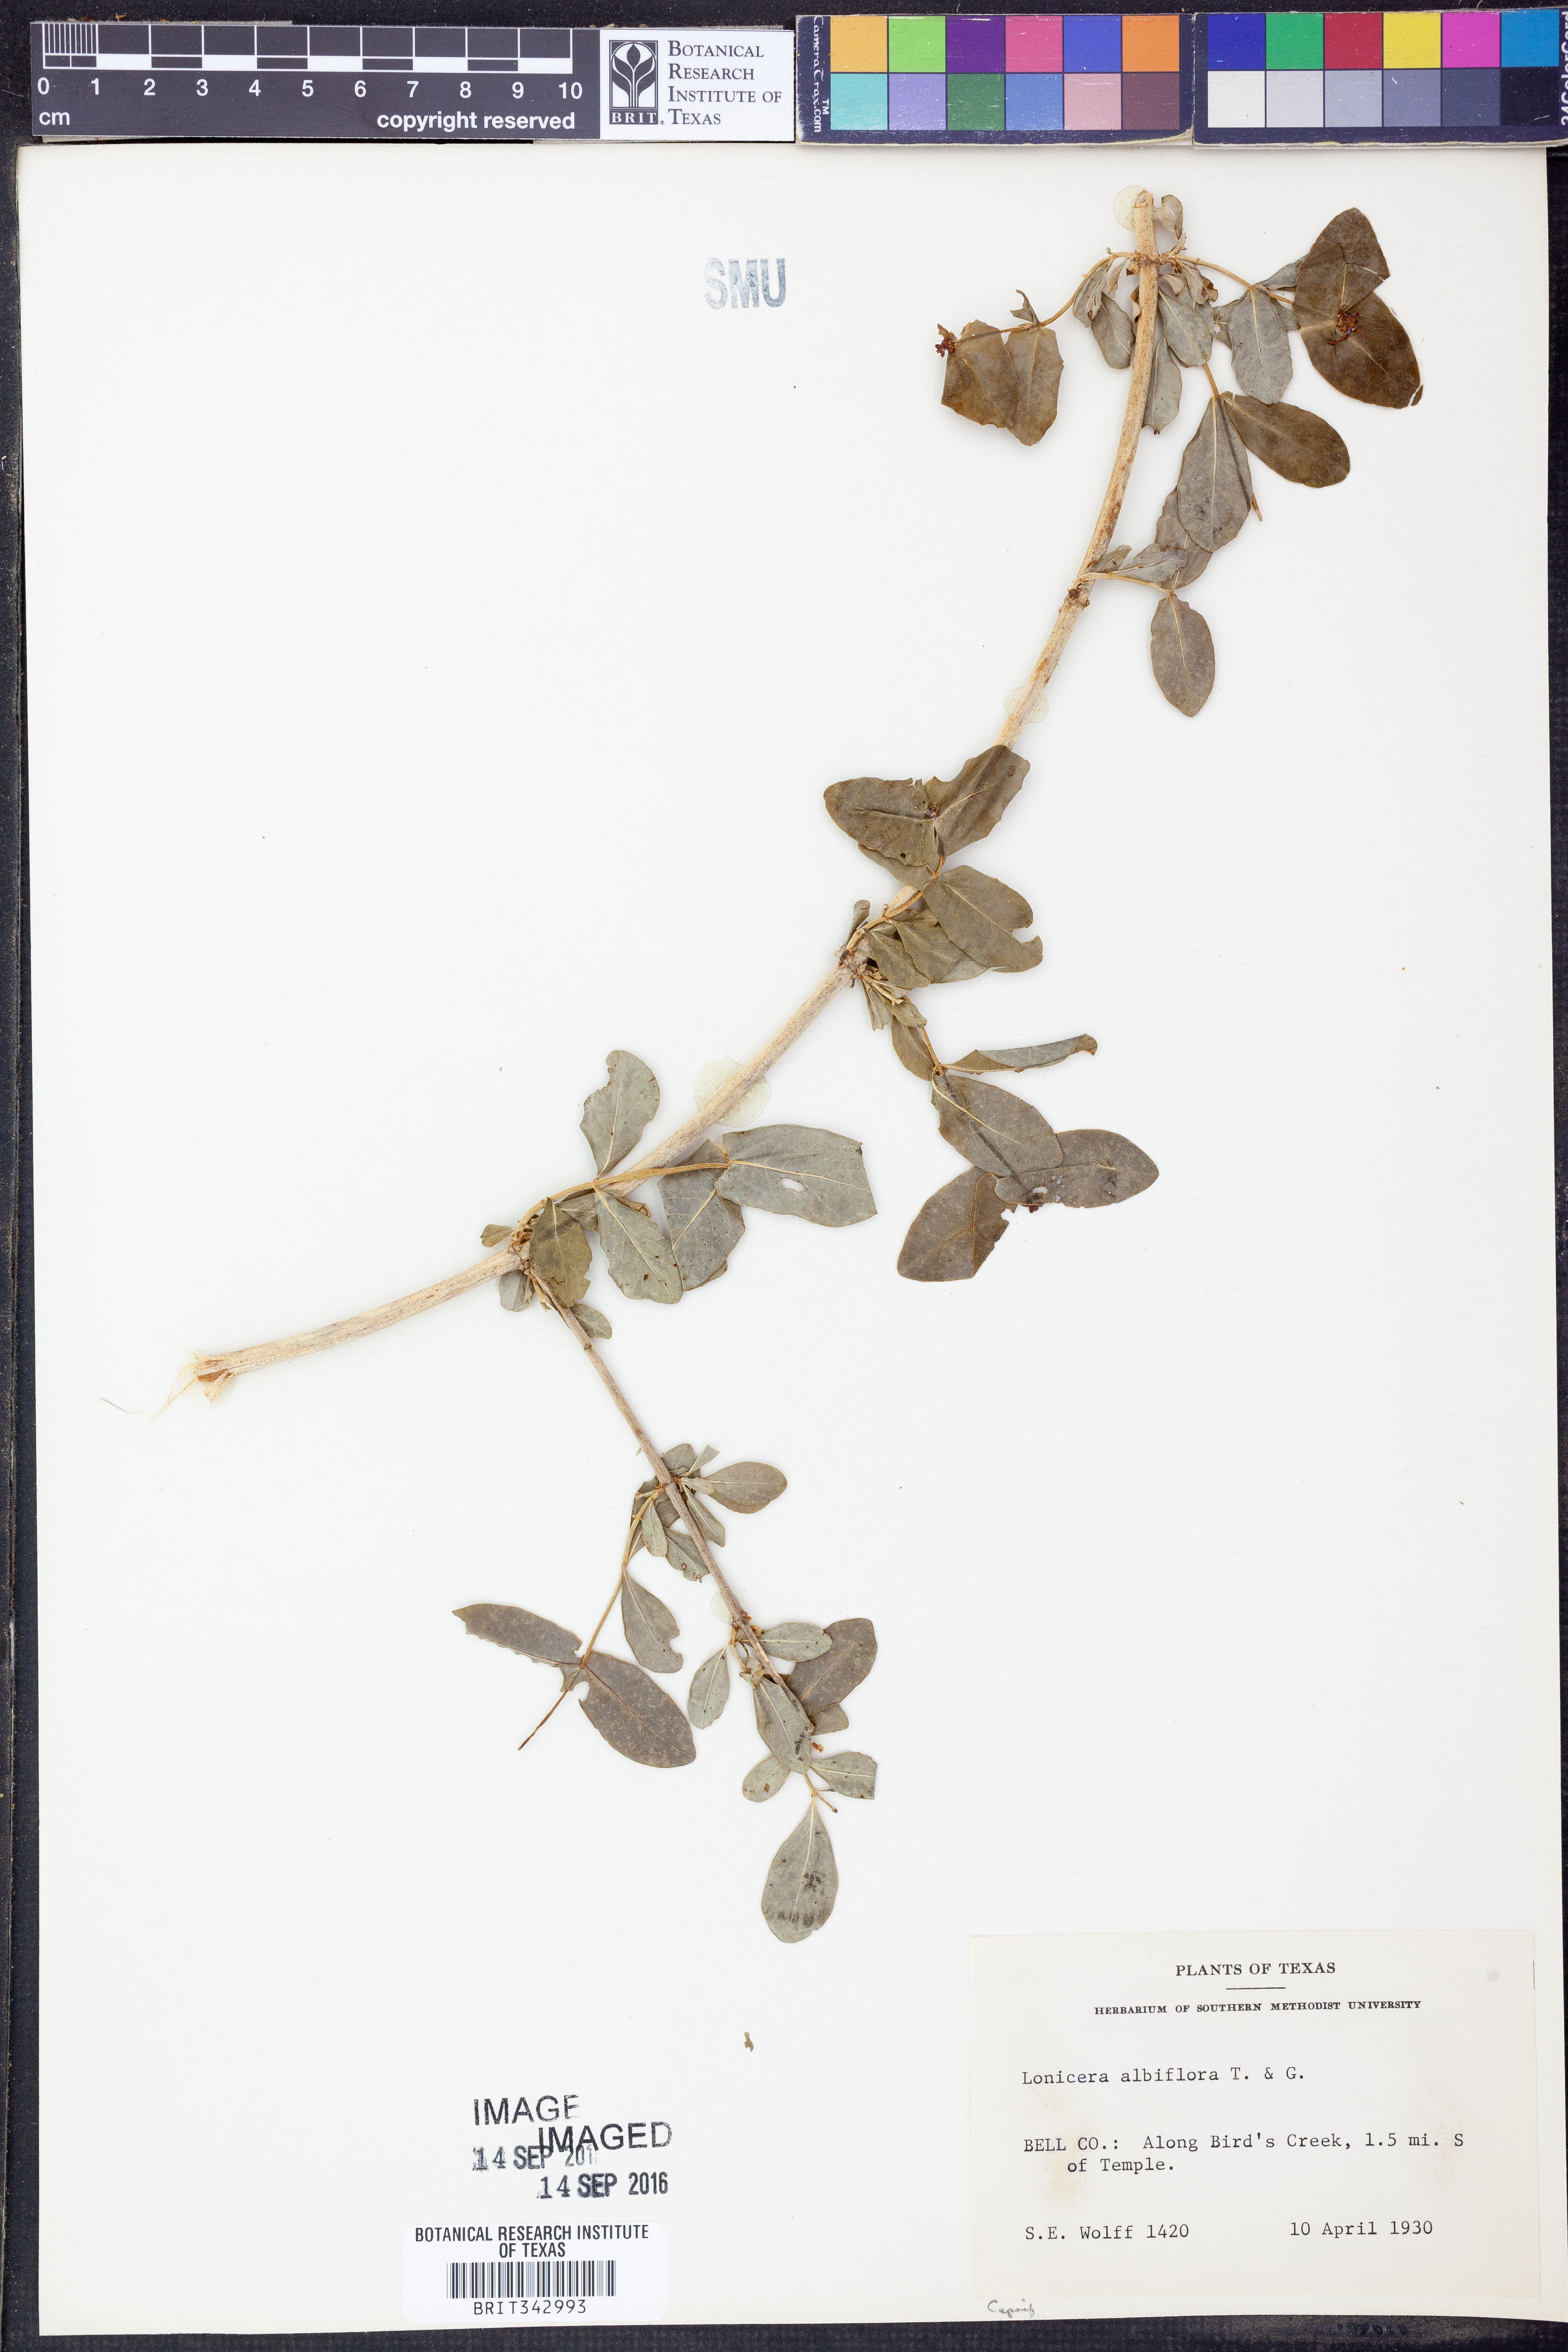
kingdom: Plantae
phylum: Tracheophyta
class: Magnoliopsida
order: Dipsacales
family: Caprifoliaceae
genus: Lonicera
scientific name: Lonicera albiflora
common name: White honeysuckle
